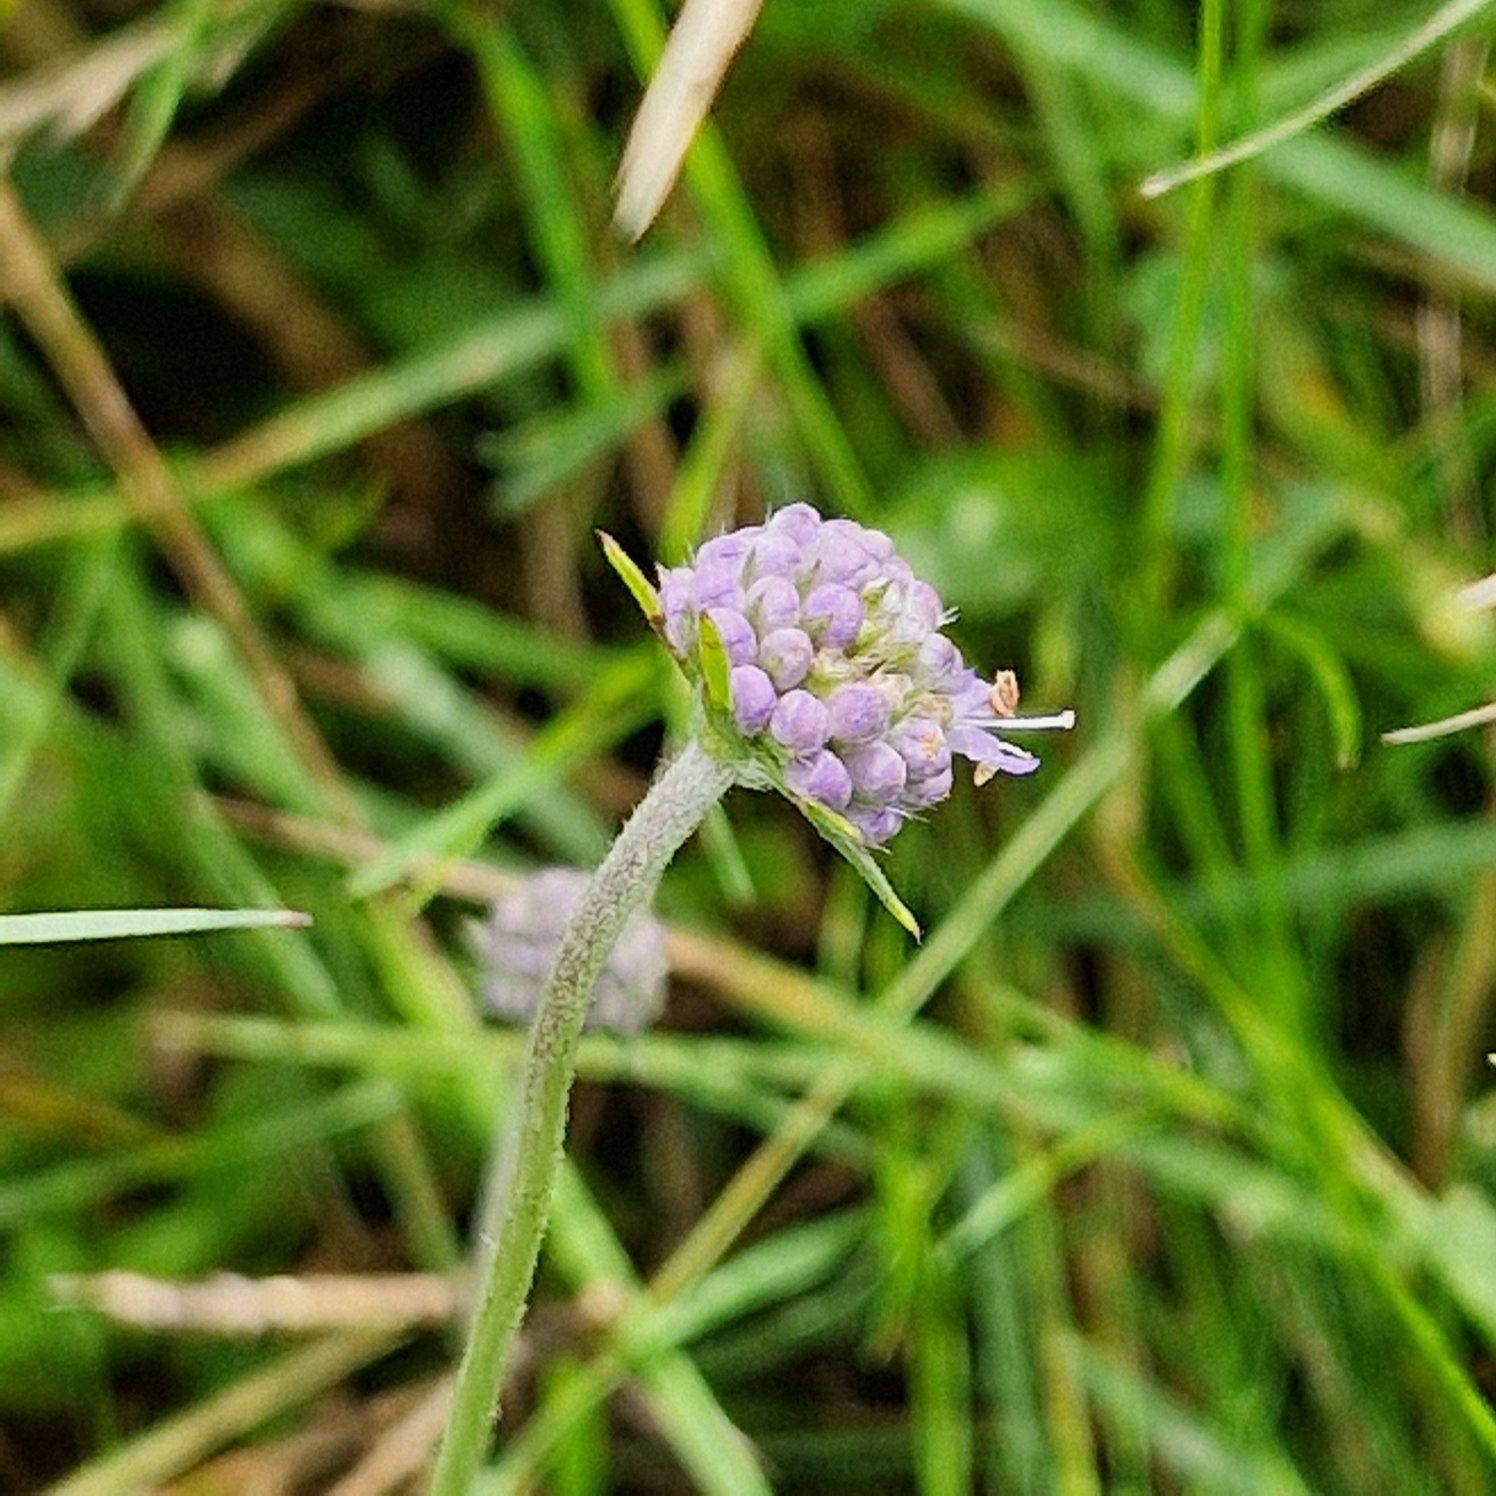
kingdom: Plantae
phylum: Tracheophyta
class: Magnoliopsida
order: Dipsacales
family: Caprifoliaceae
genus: Succisa
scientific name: Succisa pratensis
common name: Djævelsbid
